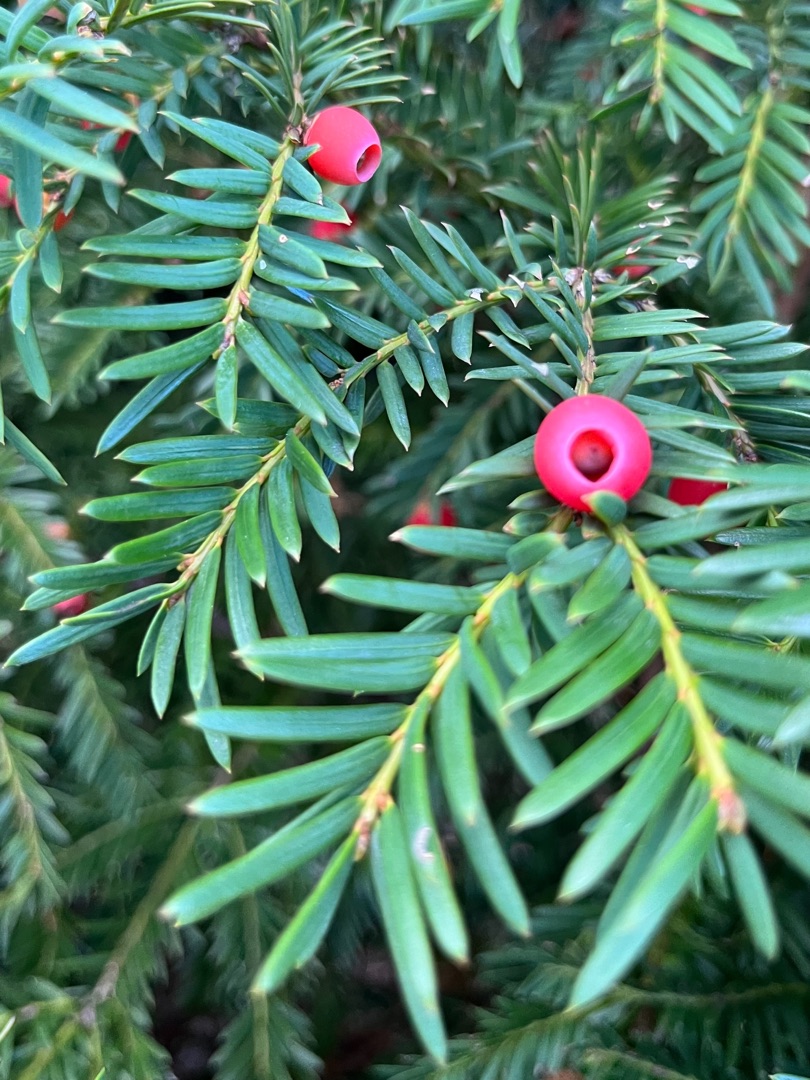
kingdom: Plantae
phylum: Tracheophyta
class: Pinopsida
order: Pinales
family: Taxaceae
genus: Taxus
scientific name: Taxus baccata
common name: Almindelig taks
